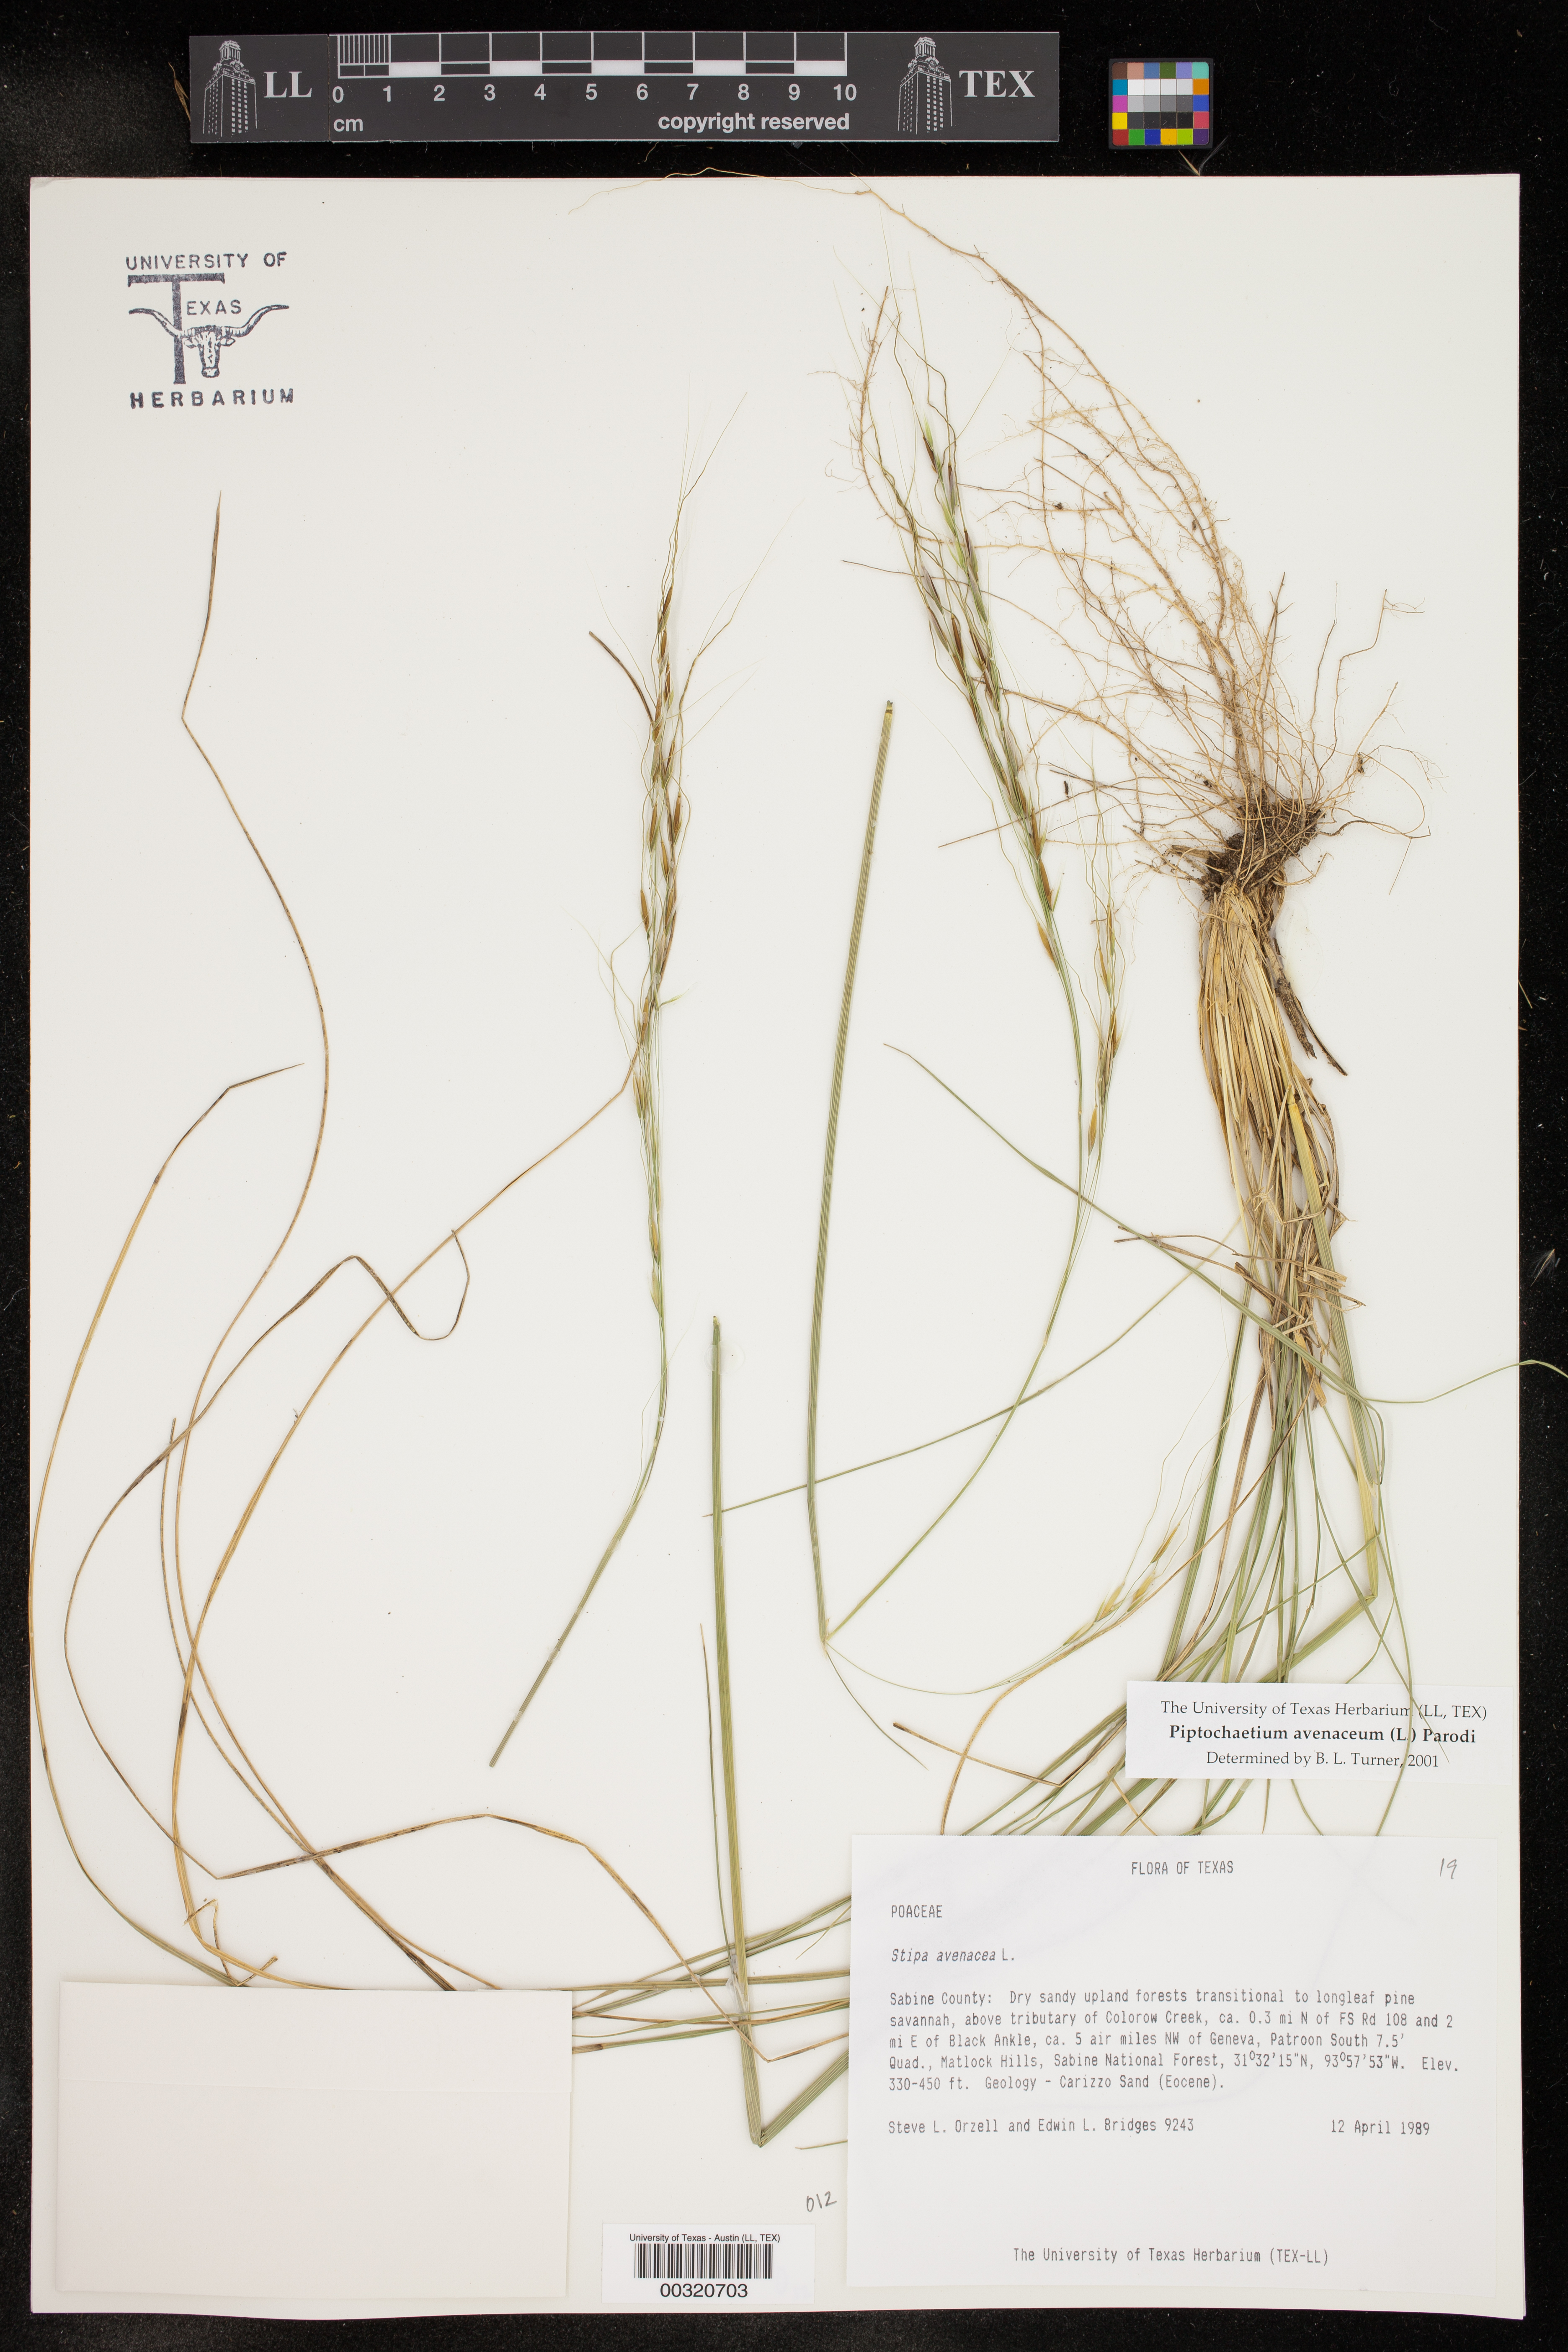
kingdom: Plantae
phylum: Tracheophyta
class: Liliopsida
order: Poales
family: Poaceae
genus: Piptochaetium
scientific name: Piptochaetium avenaceum
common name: Black bunchgrass
